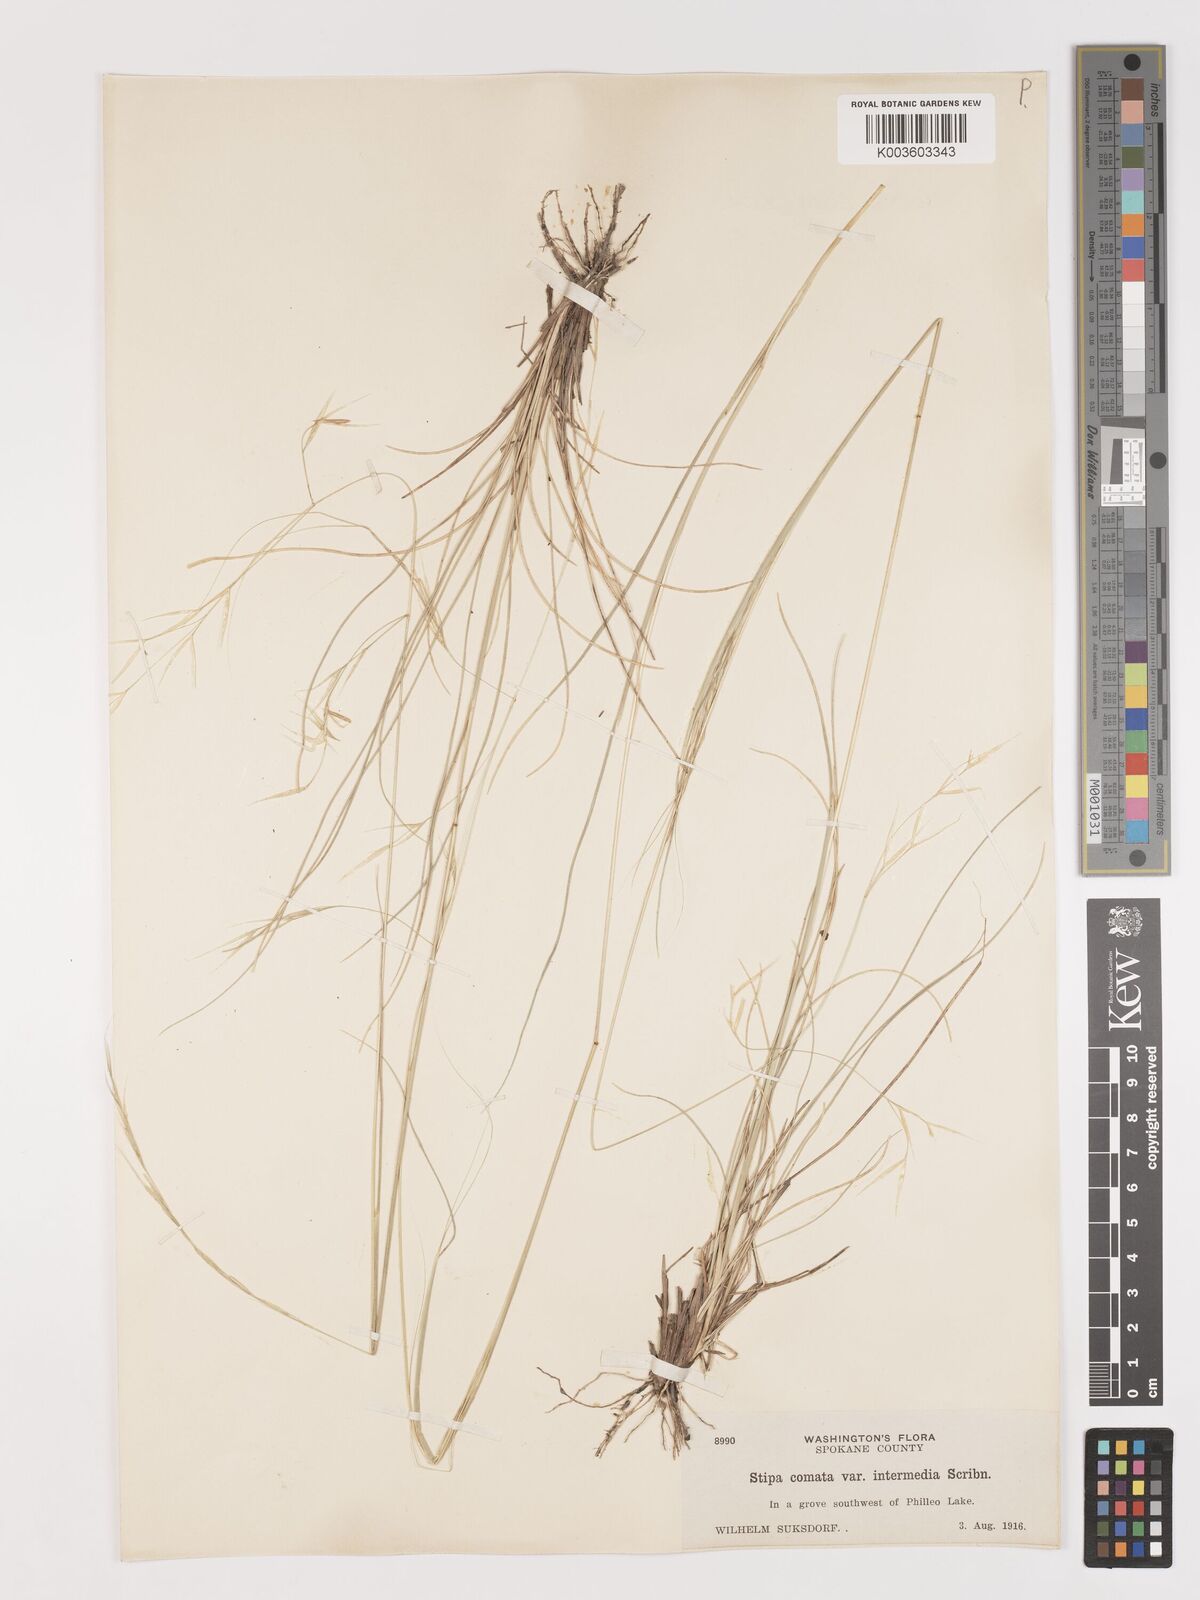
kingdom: Plantae
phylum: Tracheophyta
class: Liliopsida
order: Poales
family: Poaceae
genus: Hesperostipa
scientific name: Hesperostipa comata
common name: Needle-and-thread grass
